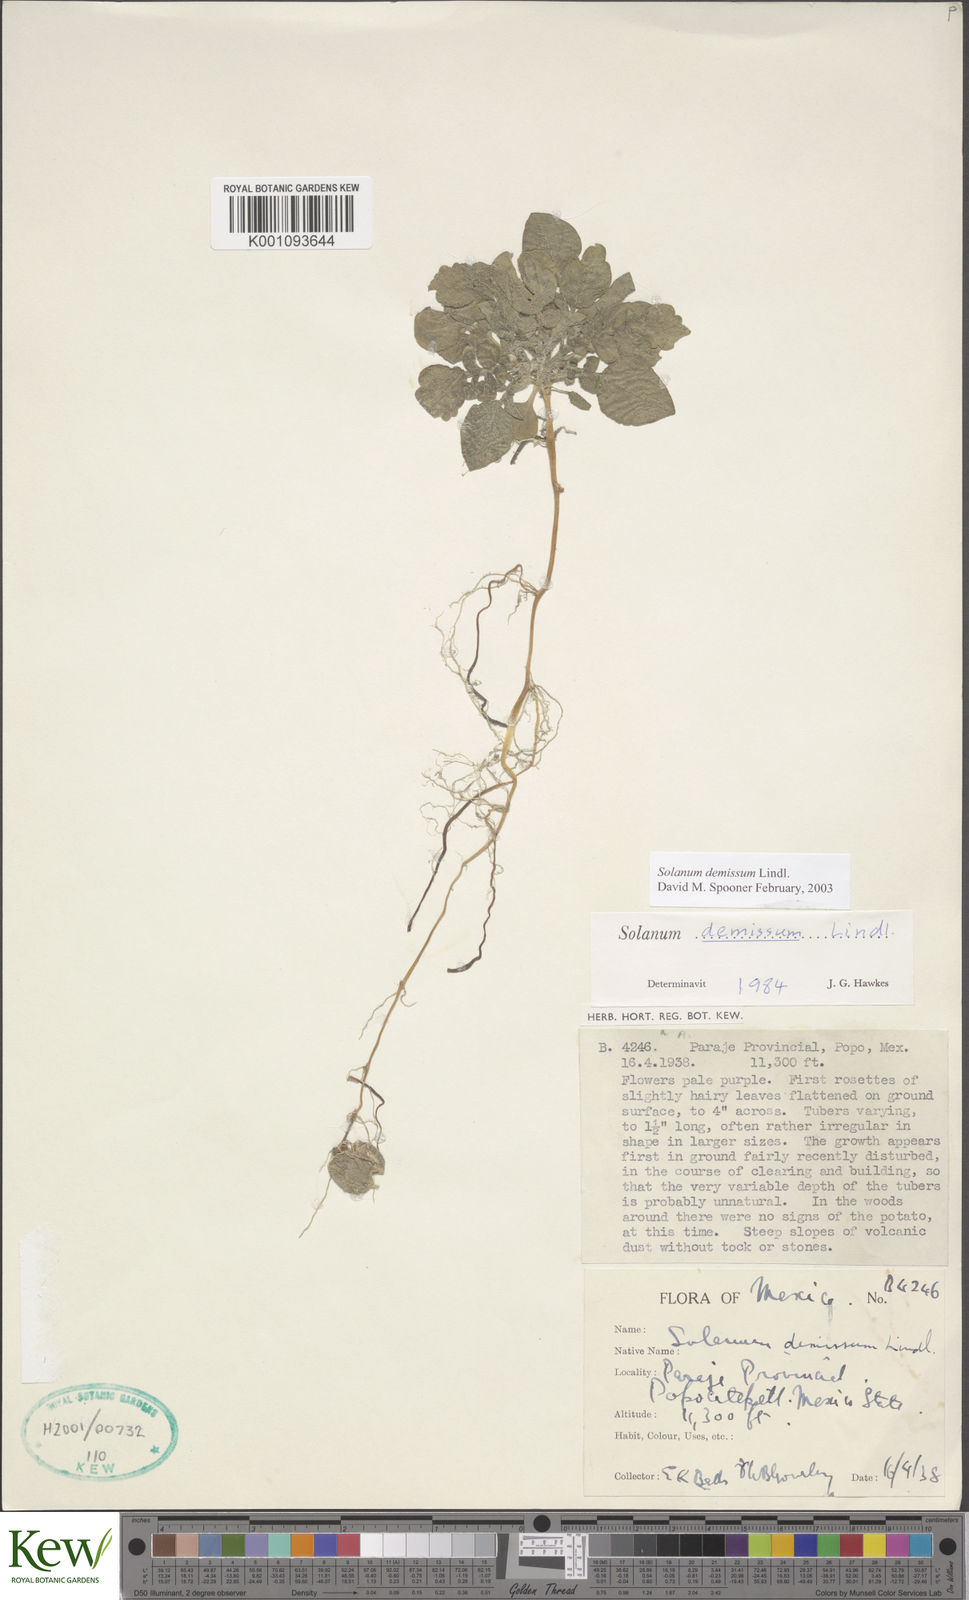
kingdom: Plantae
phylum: Tracheophyta
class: Magnoliopsida
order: Solanales
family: Solanaceae
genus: Solanum
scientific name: Solanum demissum
